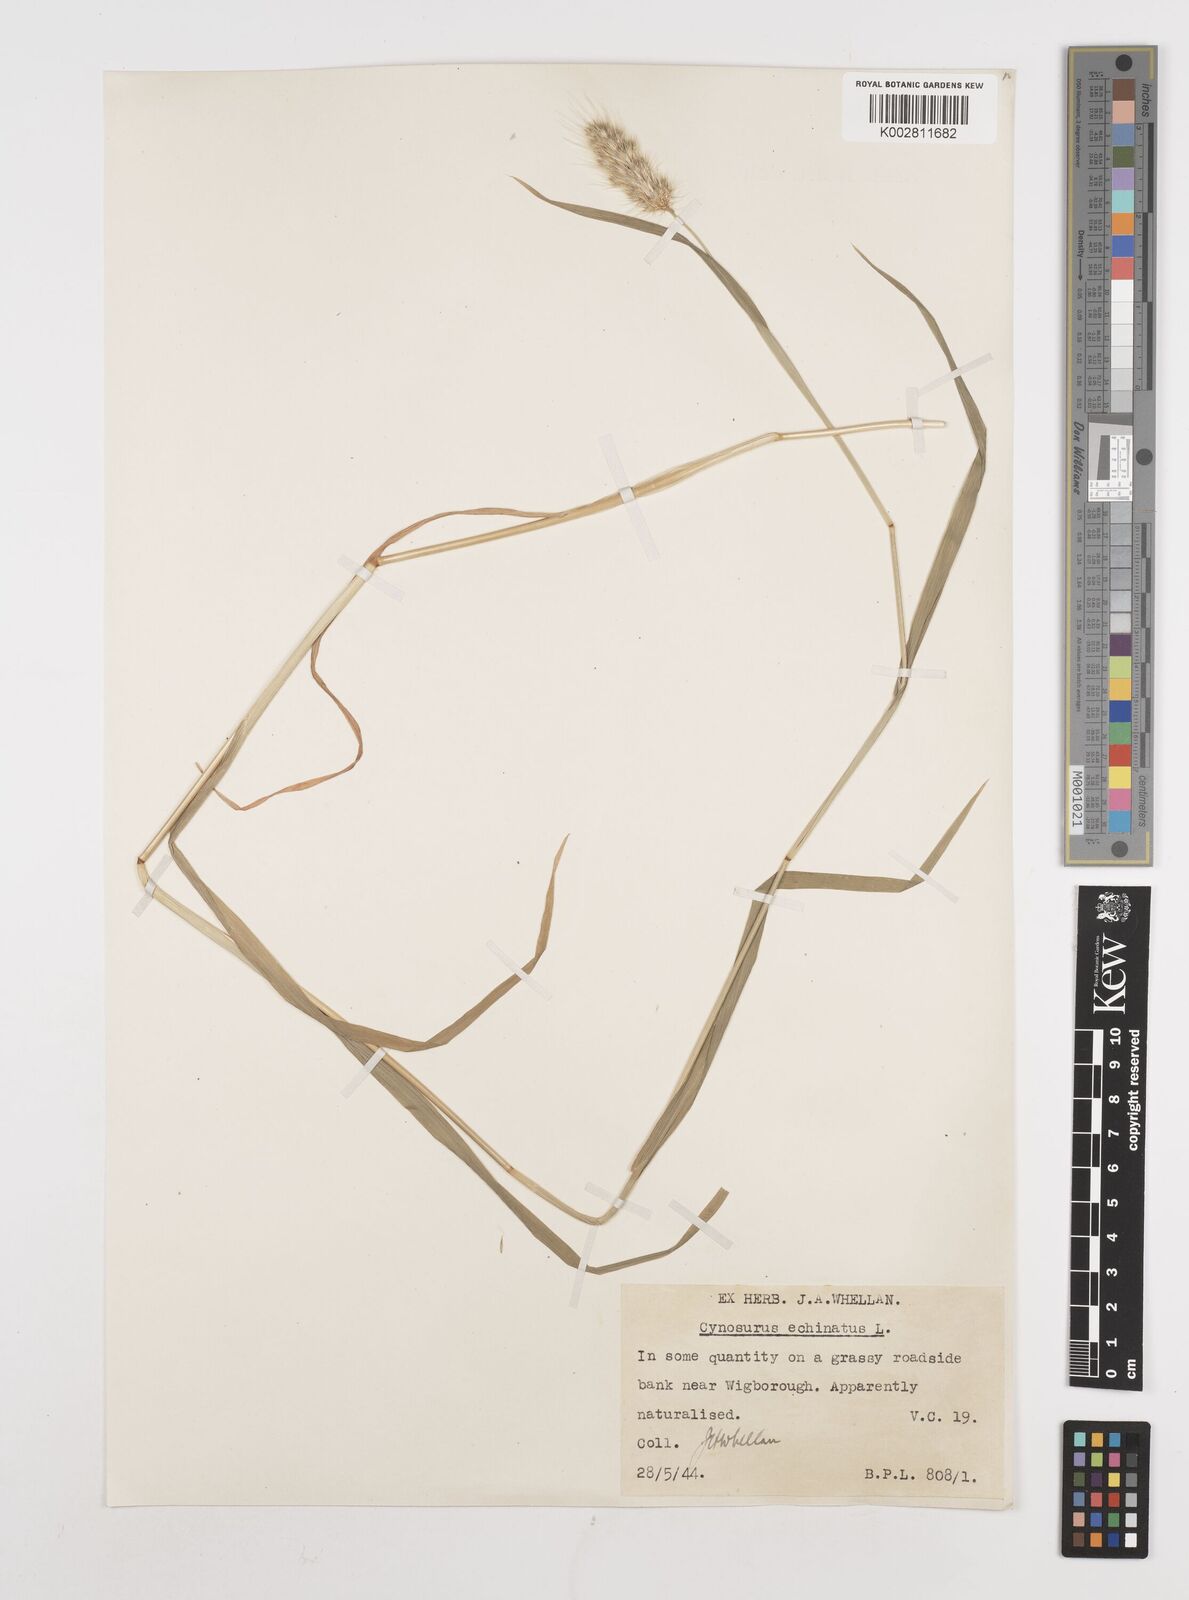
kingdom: Plantae
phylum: Tracheophyta
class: Liliopsida
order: Poales
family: Poaceae
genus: Cynosurus
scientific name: Cynosurus echinatus
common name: Rough dog's-tail
